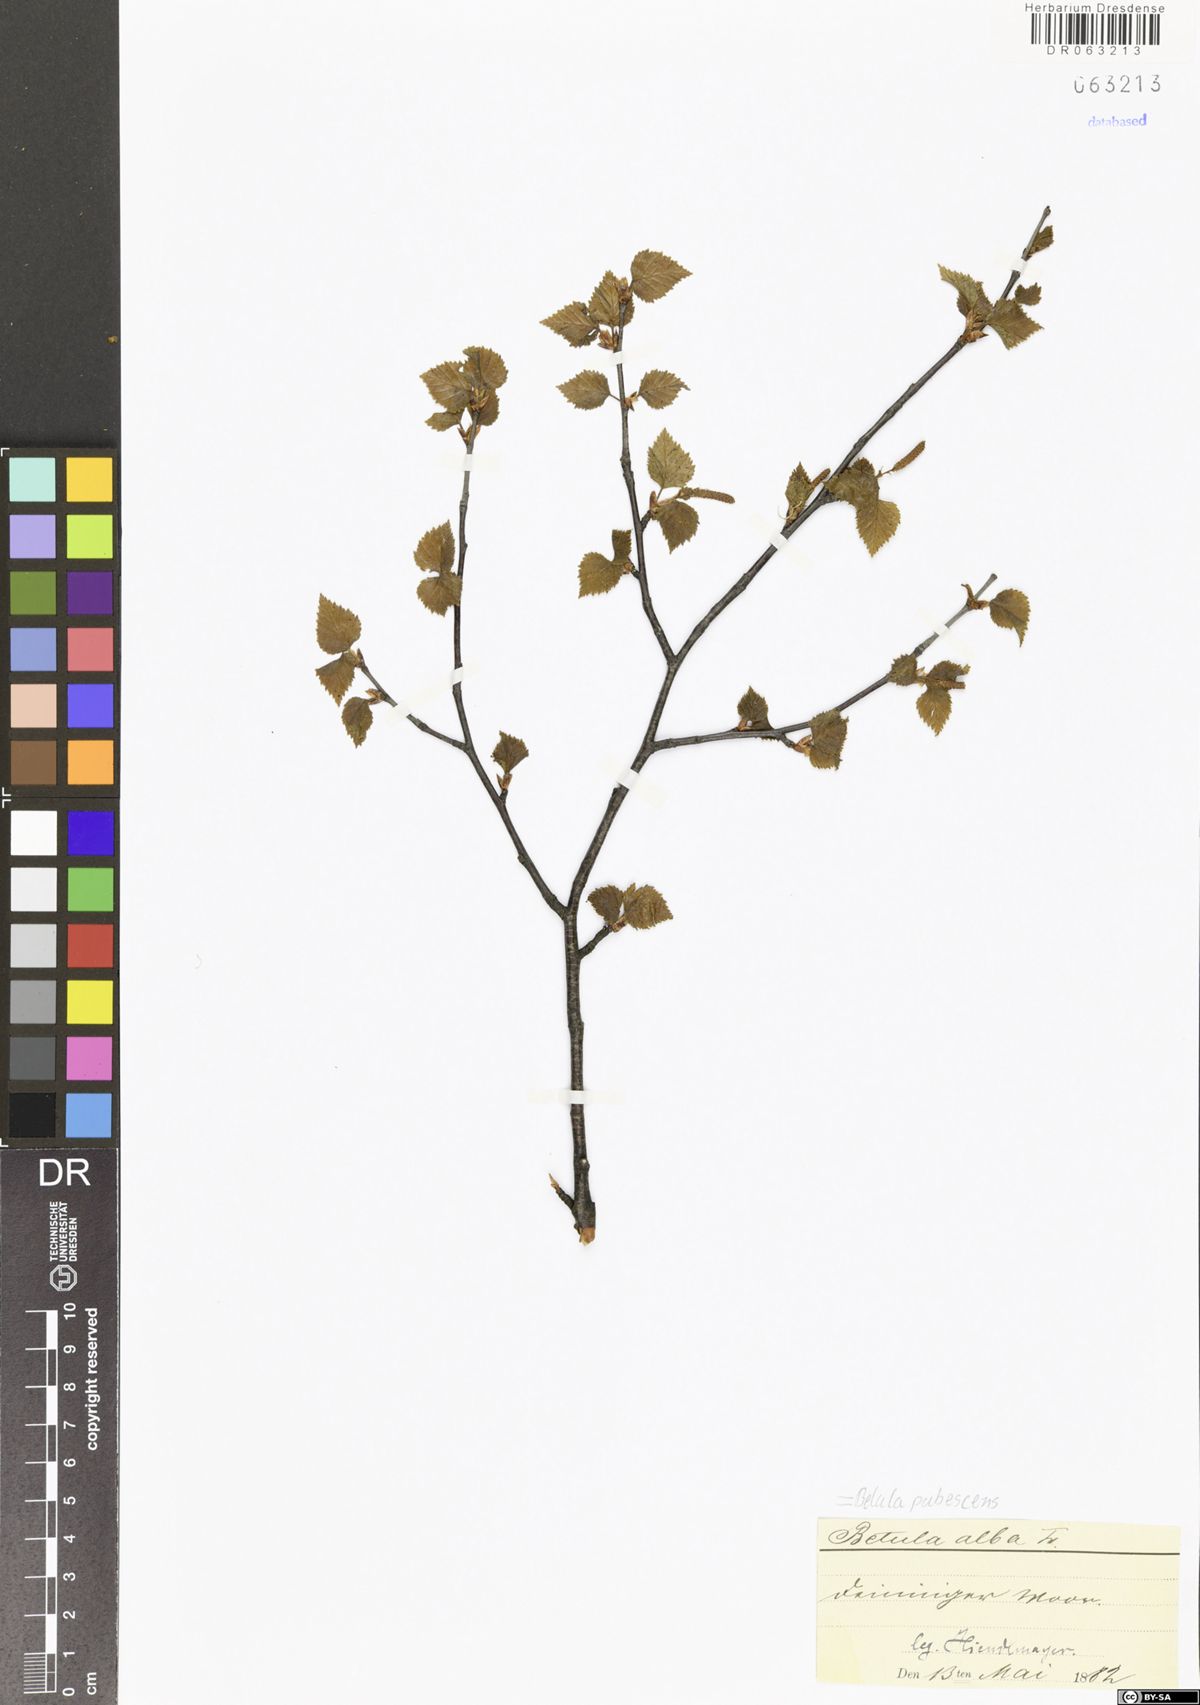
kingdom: Plantae
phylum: Tracheophyta
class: Magnoliopsida
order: Fagales
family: Betulaceae
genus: Betula
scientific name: Betula pubescens
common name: Downy birch
